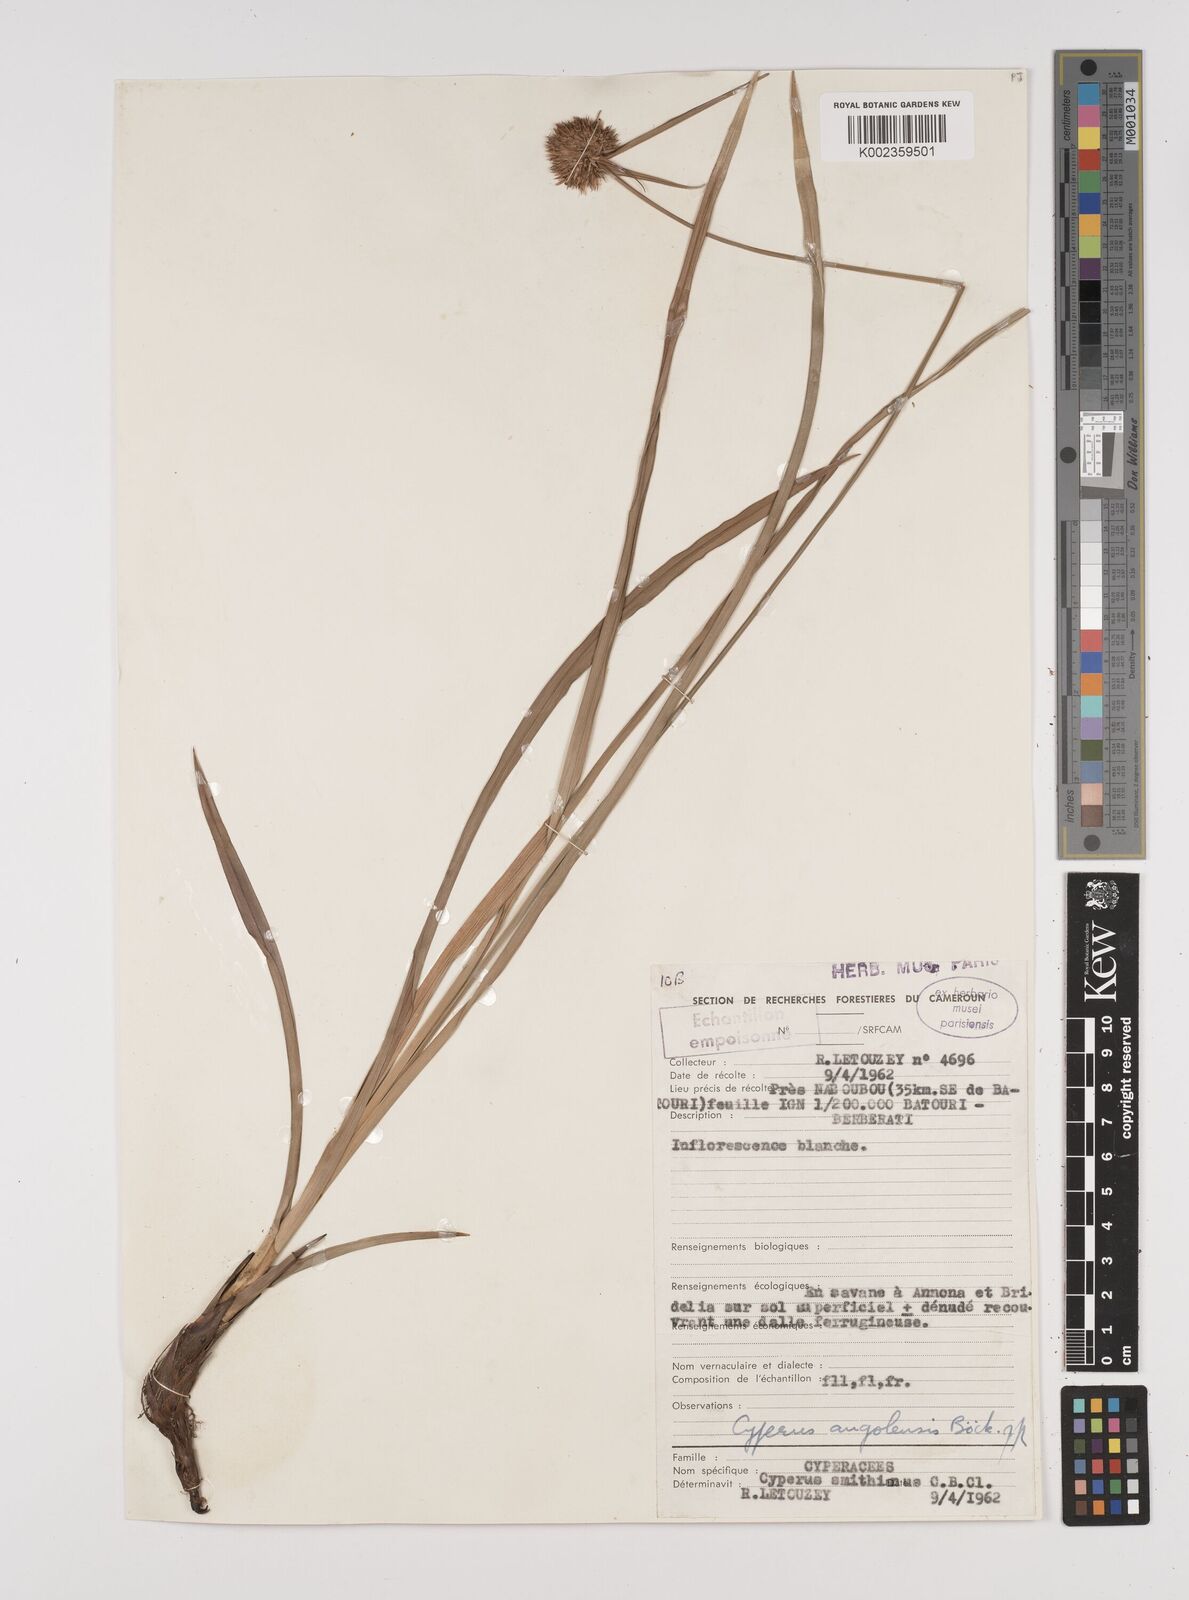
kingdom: Plantae
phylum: Tracheophyta
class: Liliopsida
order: Poales
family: Cyperaceae
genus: Cyperus
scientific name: Cyperus angolensis
